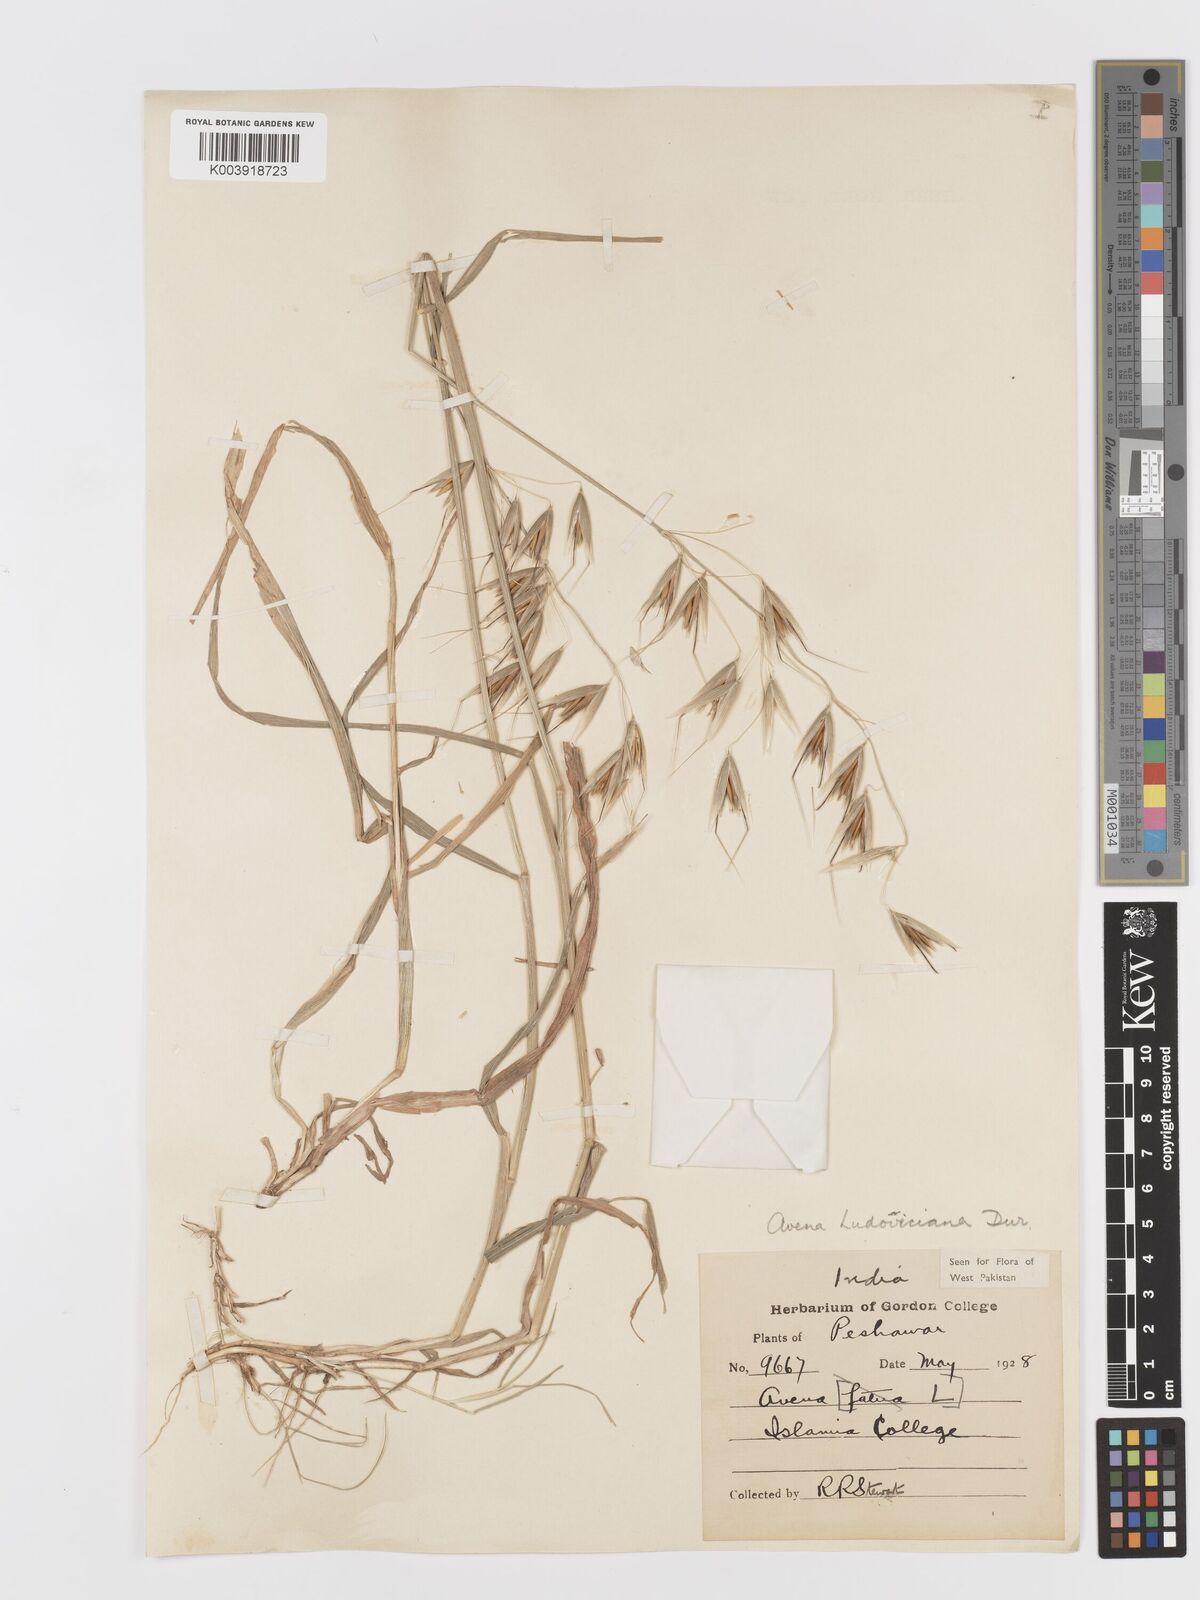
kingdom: Plantae
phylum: Tracheophyta
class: Liliopsida
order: Poales
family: Poaceae
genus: Avena
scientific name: Avena sterilis
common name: Animated oat
